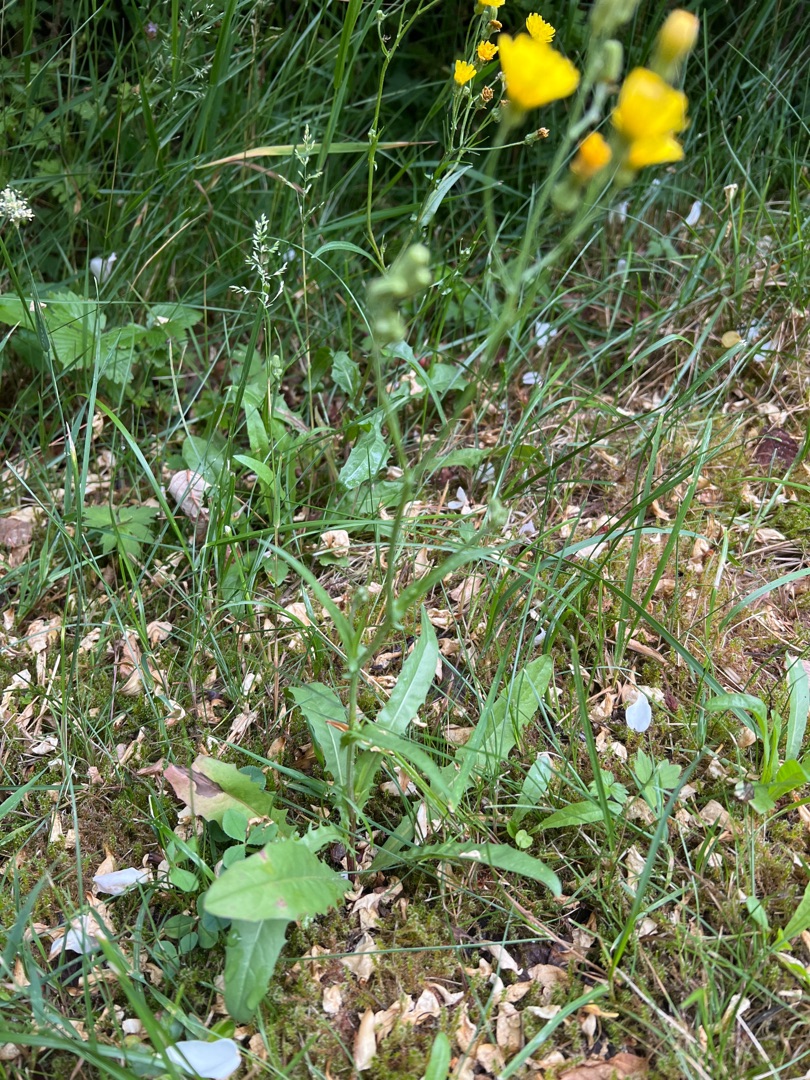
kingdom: Plantae
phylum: Tracheophyta
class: Magnoliopsida
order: Asterales
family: Asteraceae
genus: Crepis
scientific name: Crepis capillaris
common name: Grøn høgeskæg
